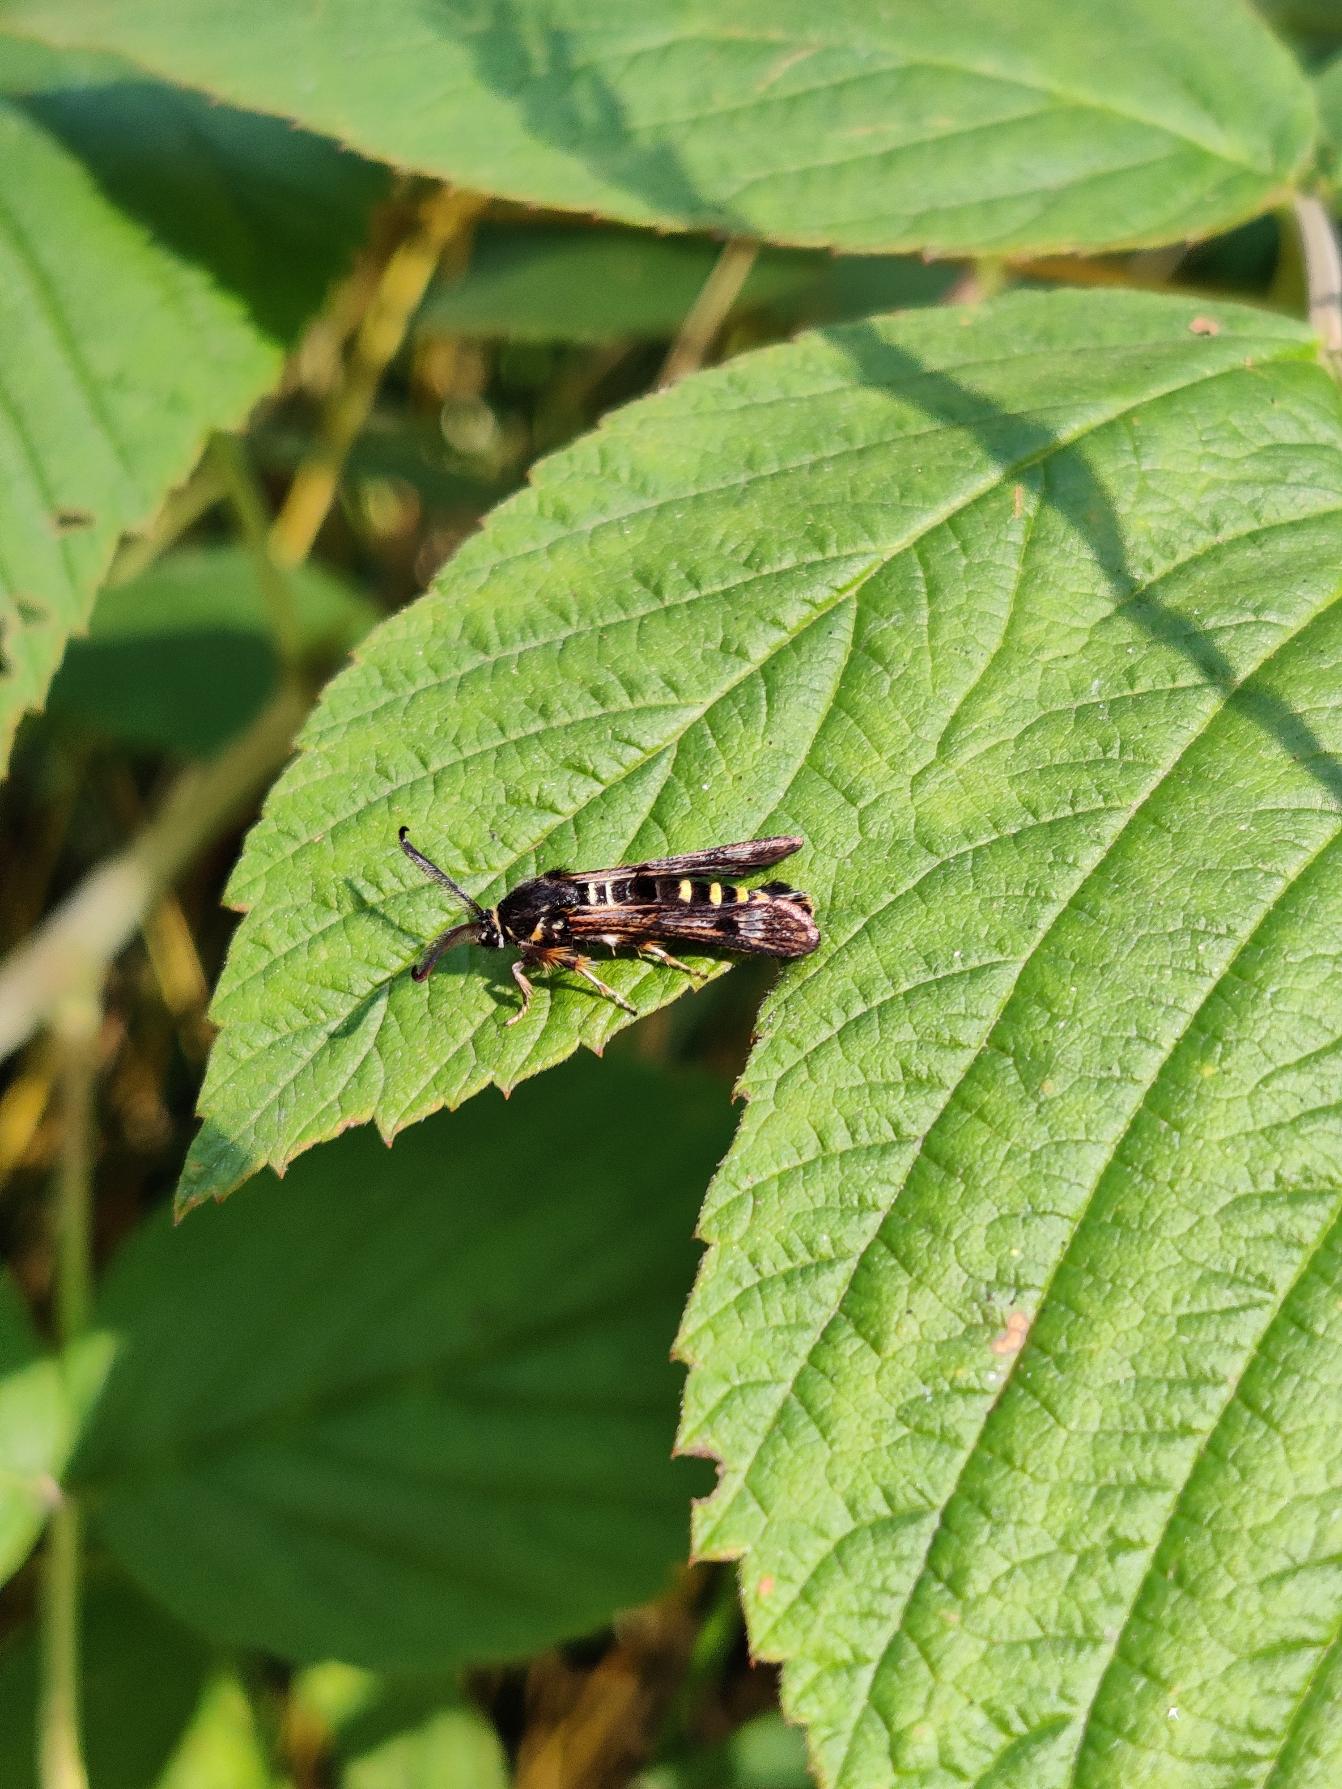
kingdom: Animalia
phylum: Arthropoda
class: Insecta
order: Lepidoptera
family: Sesiidae
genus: Pennisetia
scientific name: Pennisetia hylaeiformis
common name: Hindbærglassværmer
